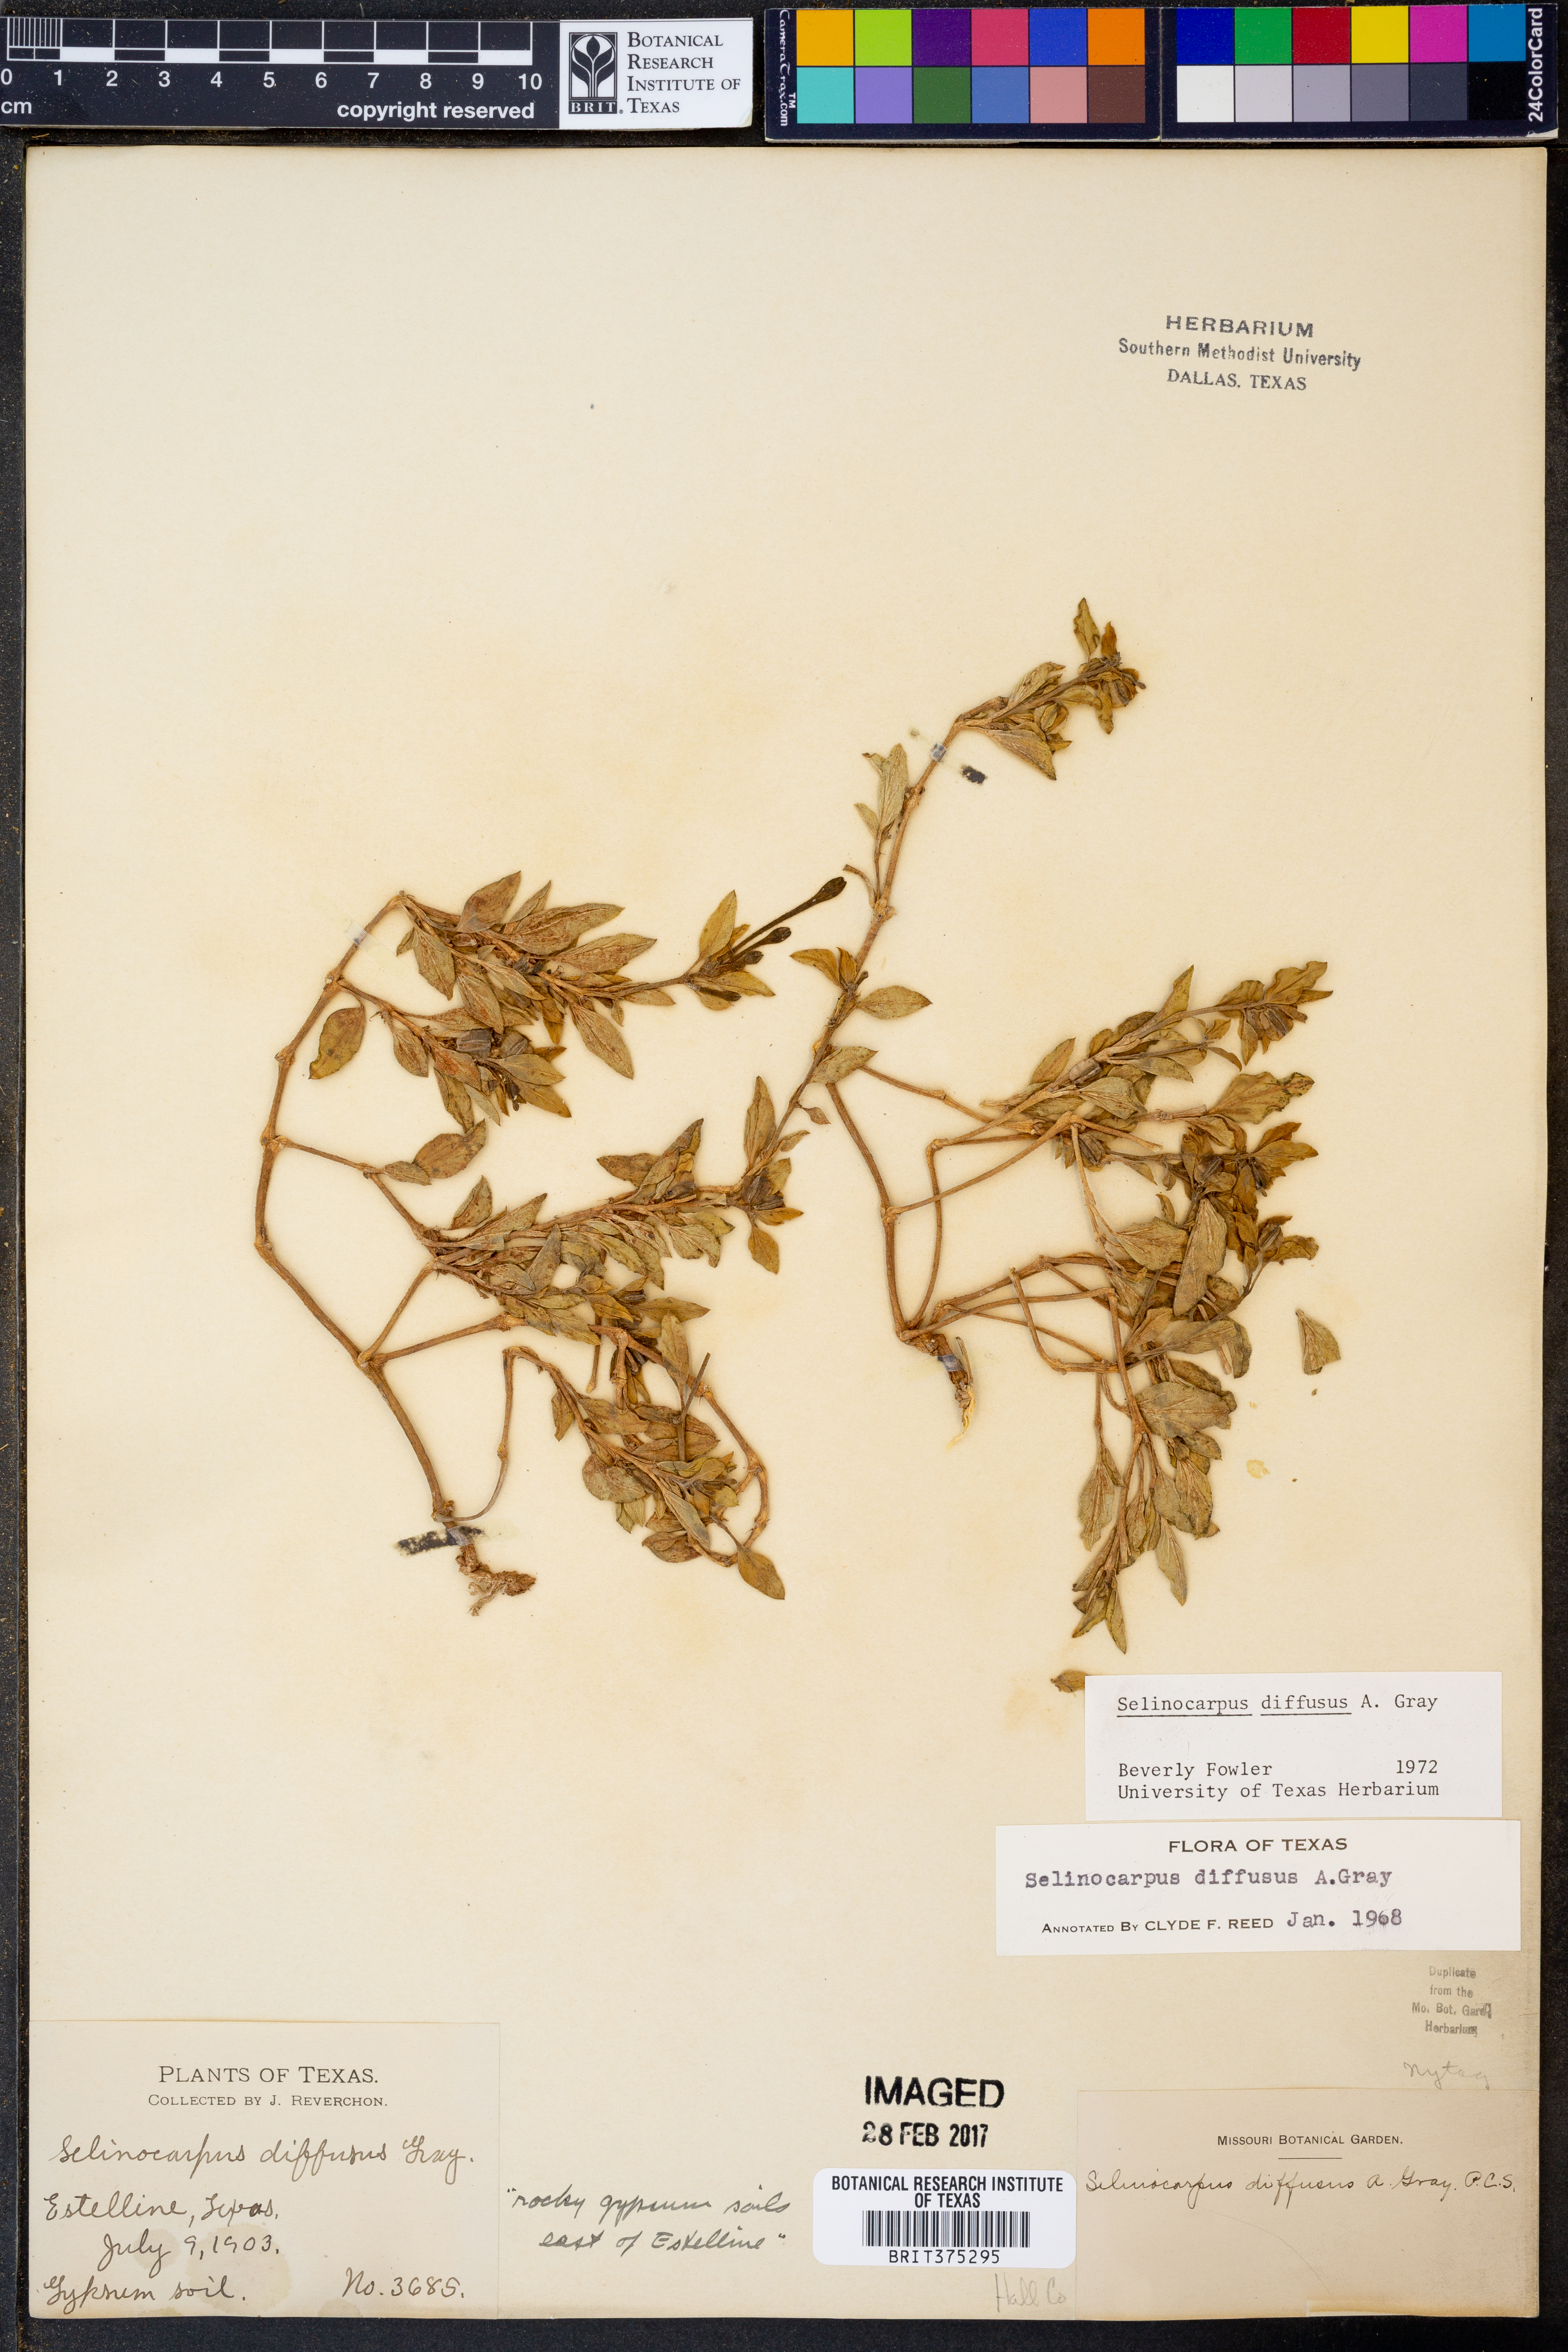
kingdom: Plantae
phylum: Tracheophyta
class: Magnoliopsida
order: Caryophyllales
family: Nyctaginaceae
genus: Acleisanthes
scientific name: Acleisanthes diffusa
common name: Spreading moonpod
